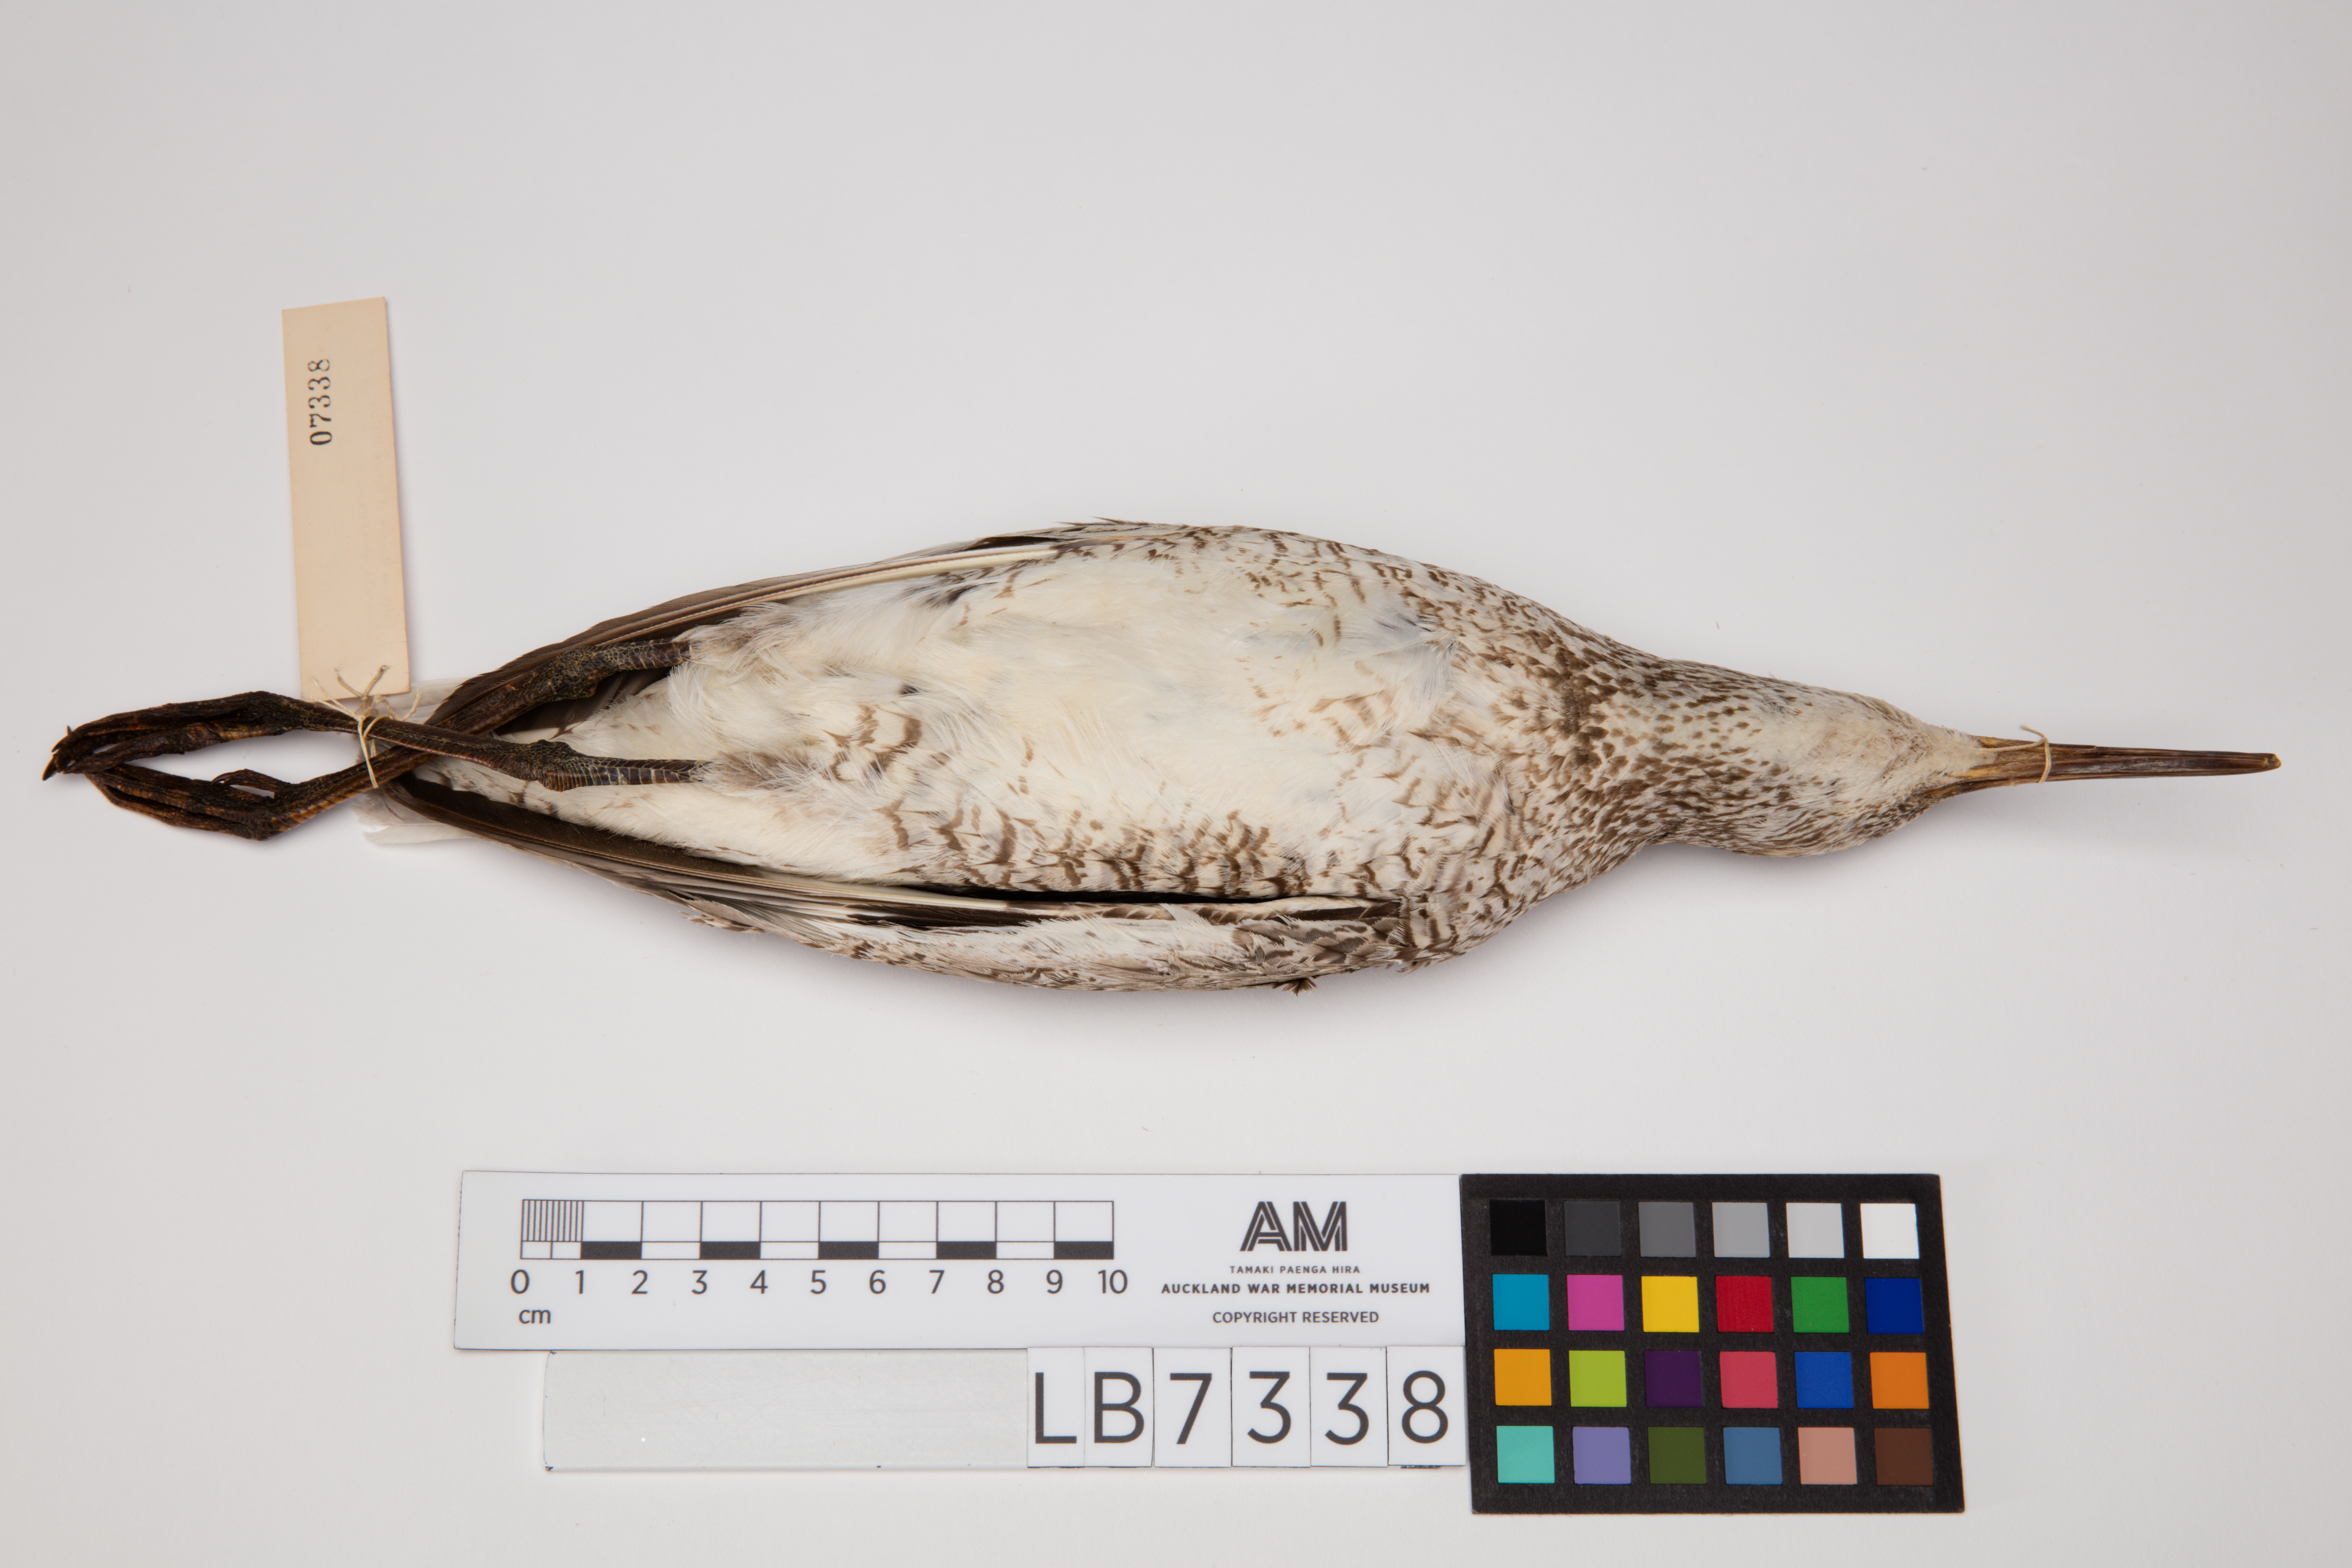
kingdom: Animalia
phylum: Chordata
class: Aves
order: Charadriiformes
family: Scolopacidae
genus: Tringa
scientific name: Tringa semipalmata
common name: Willet
